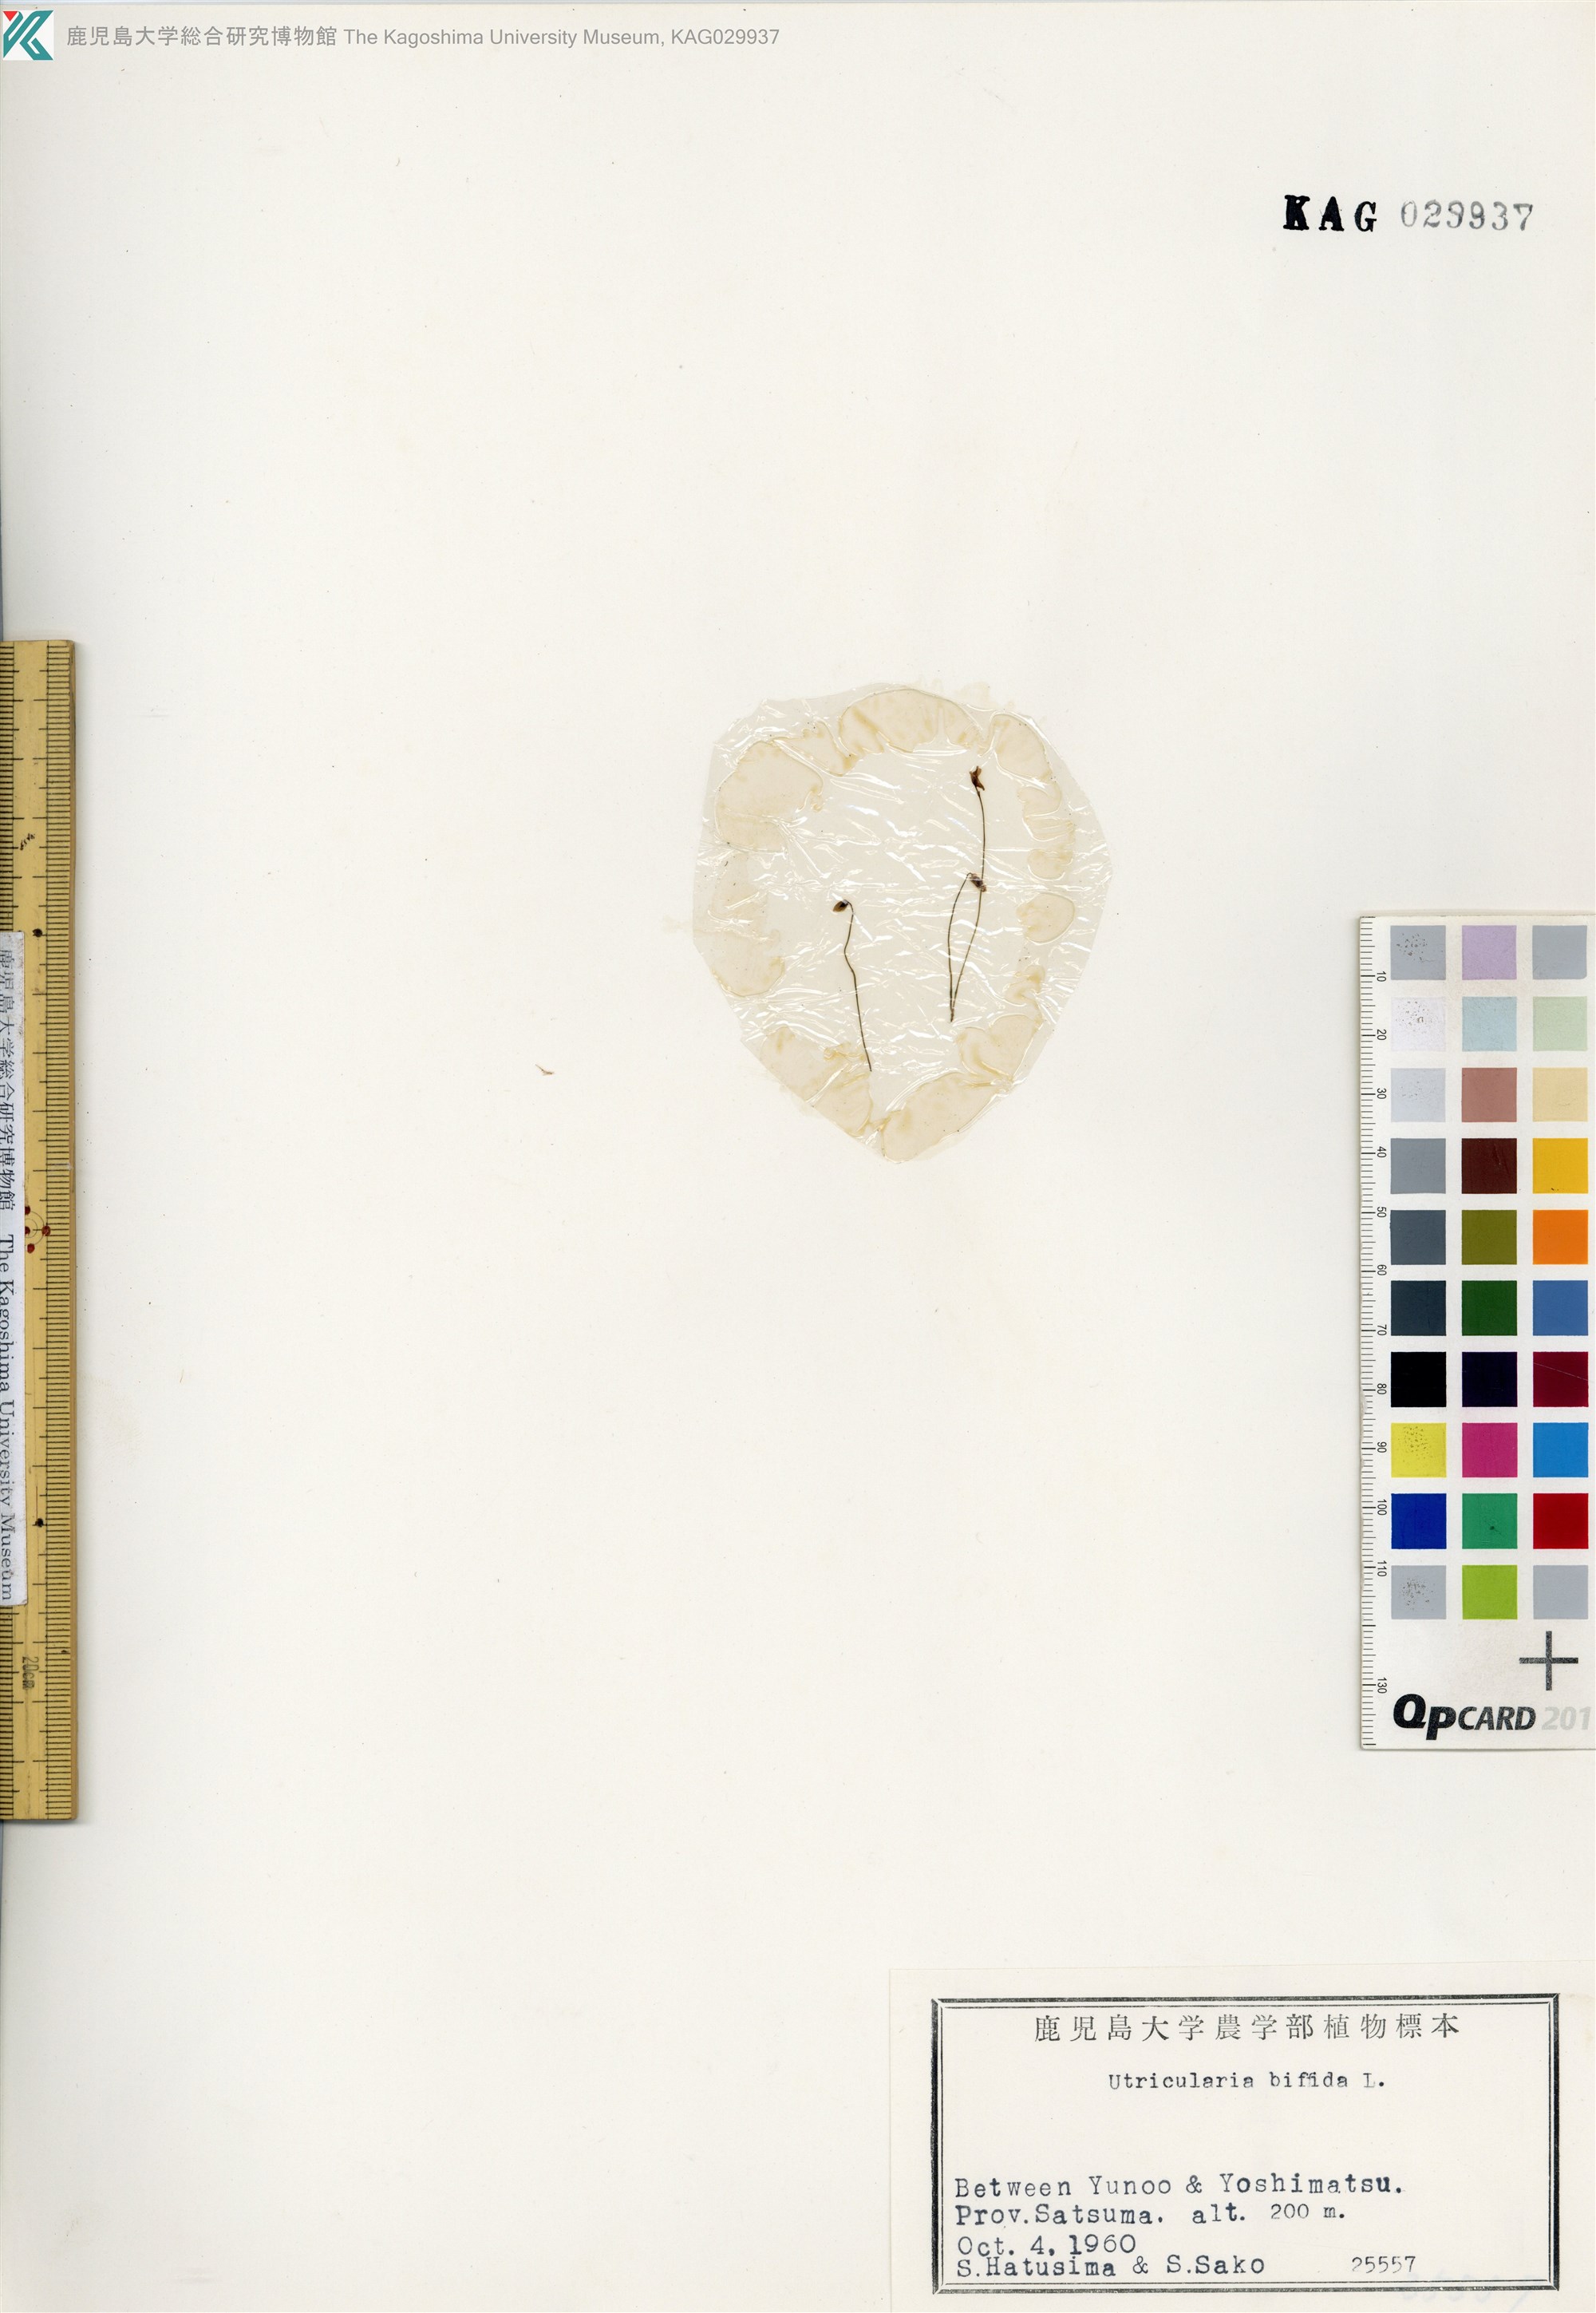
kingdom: Plantae
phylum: Tracheophyta
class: Magnoliopsida
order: Lamiales
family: Lentibulariaceae
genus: Utricularia
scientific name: Utricularia bifida
